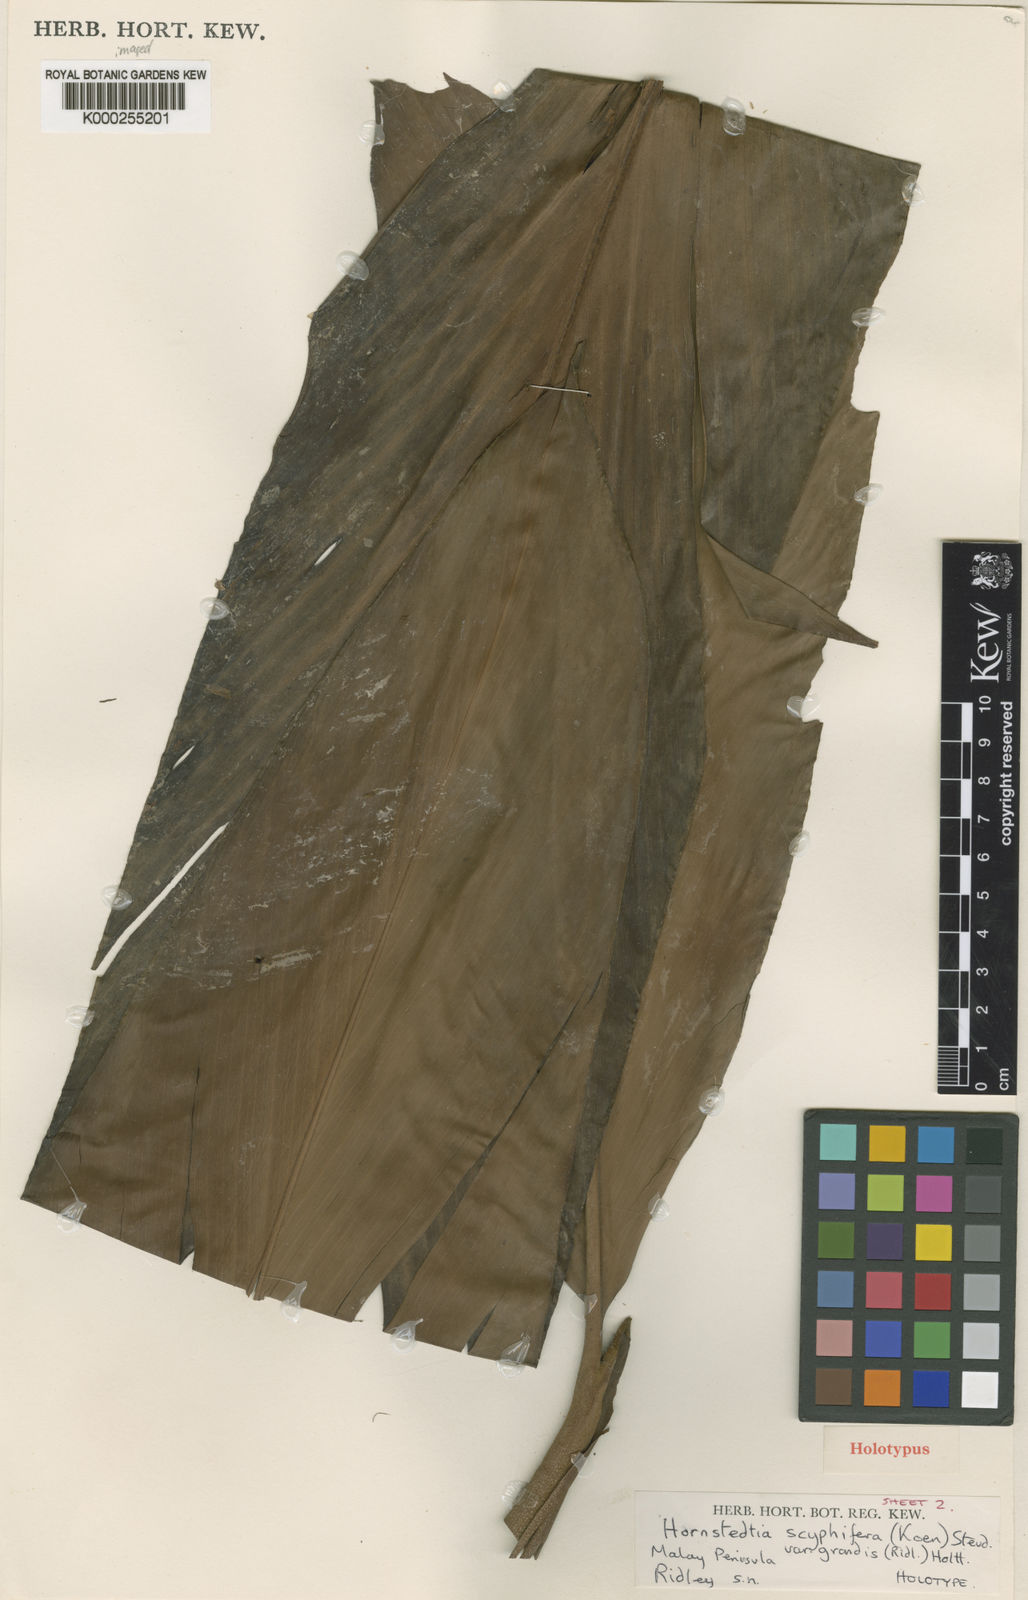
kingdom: Plantae
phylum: Tracheophyta
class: Liliopsida
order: Zingiberales
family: Zingiberaceae
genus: Hornstedtia
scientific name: Hornstedtia scyphifera
